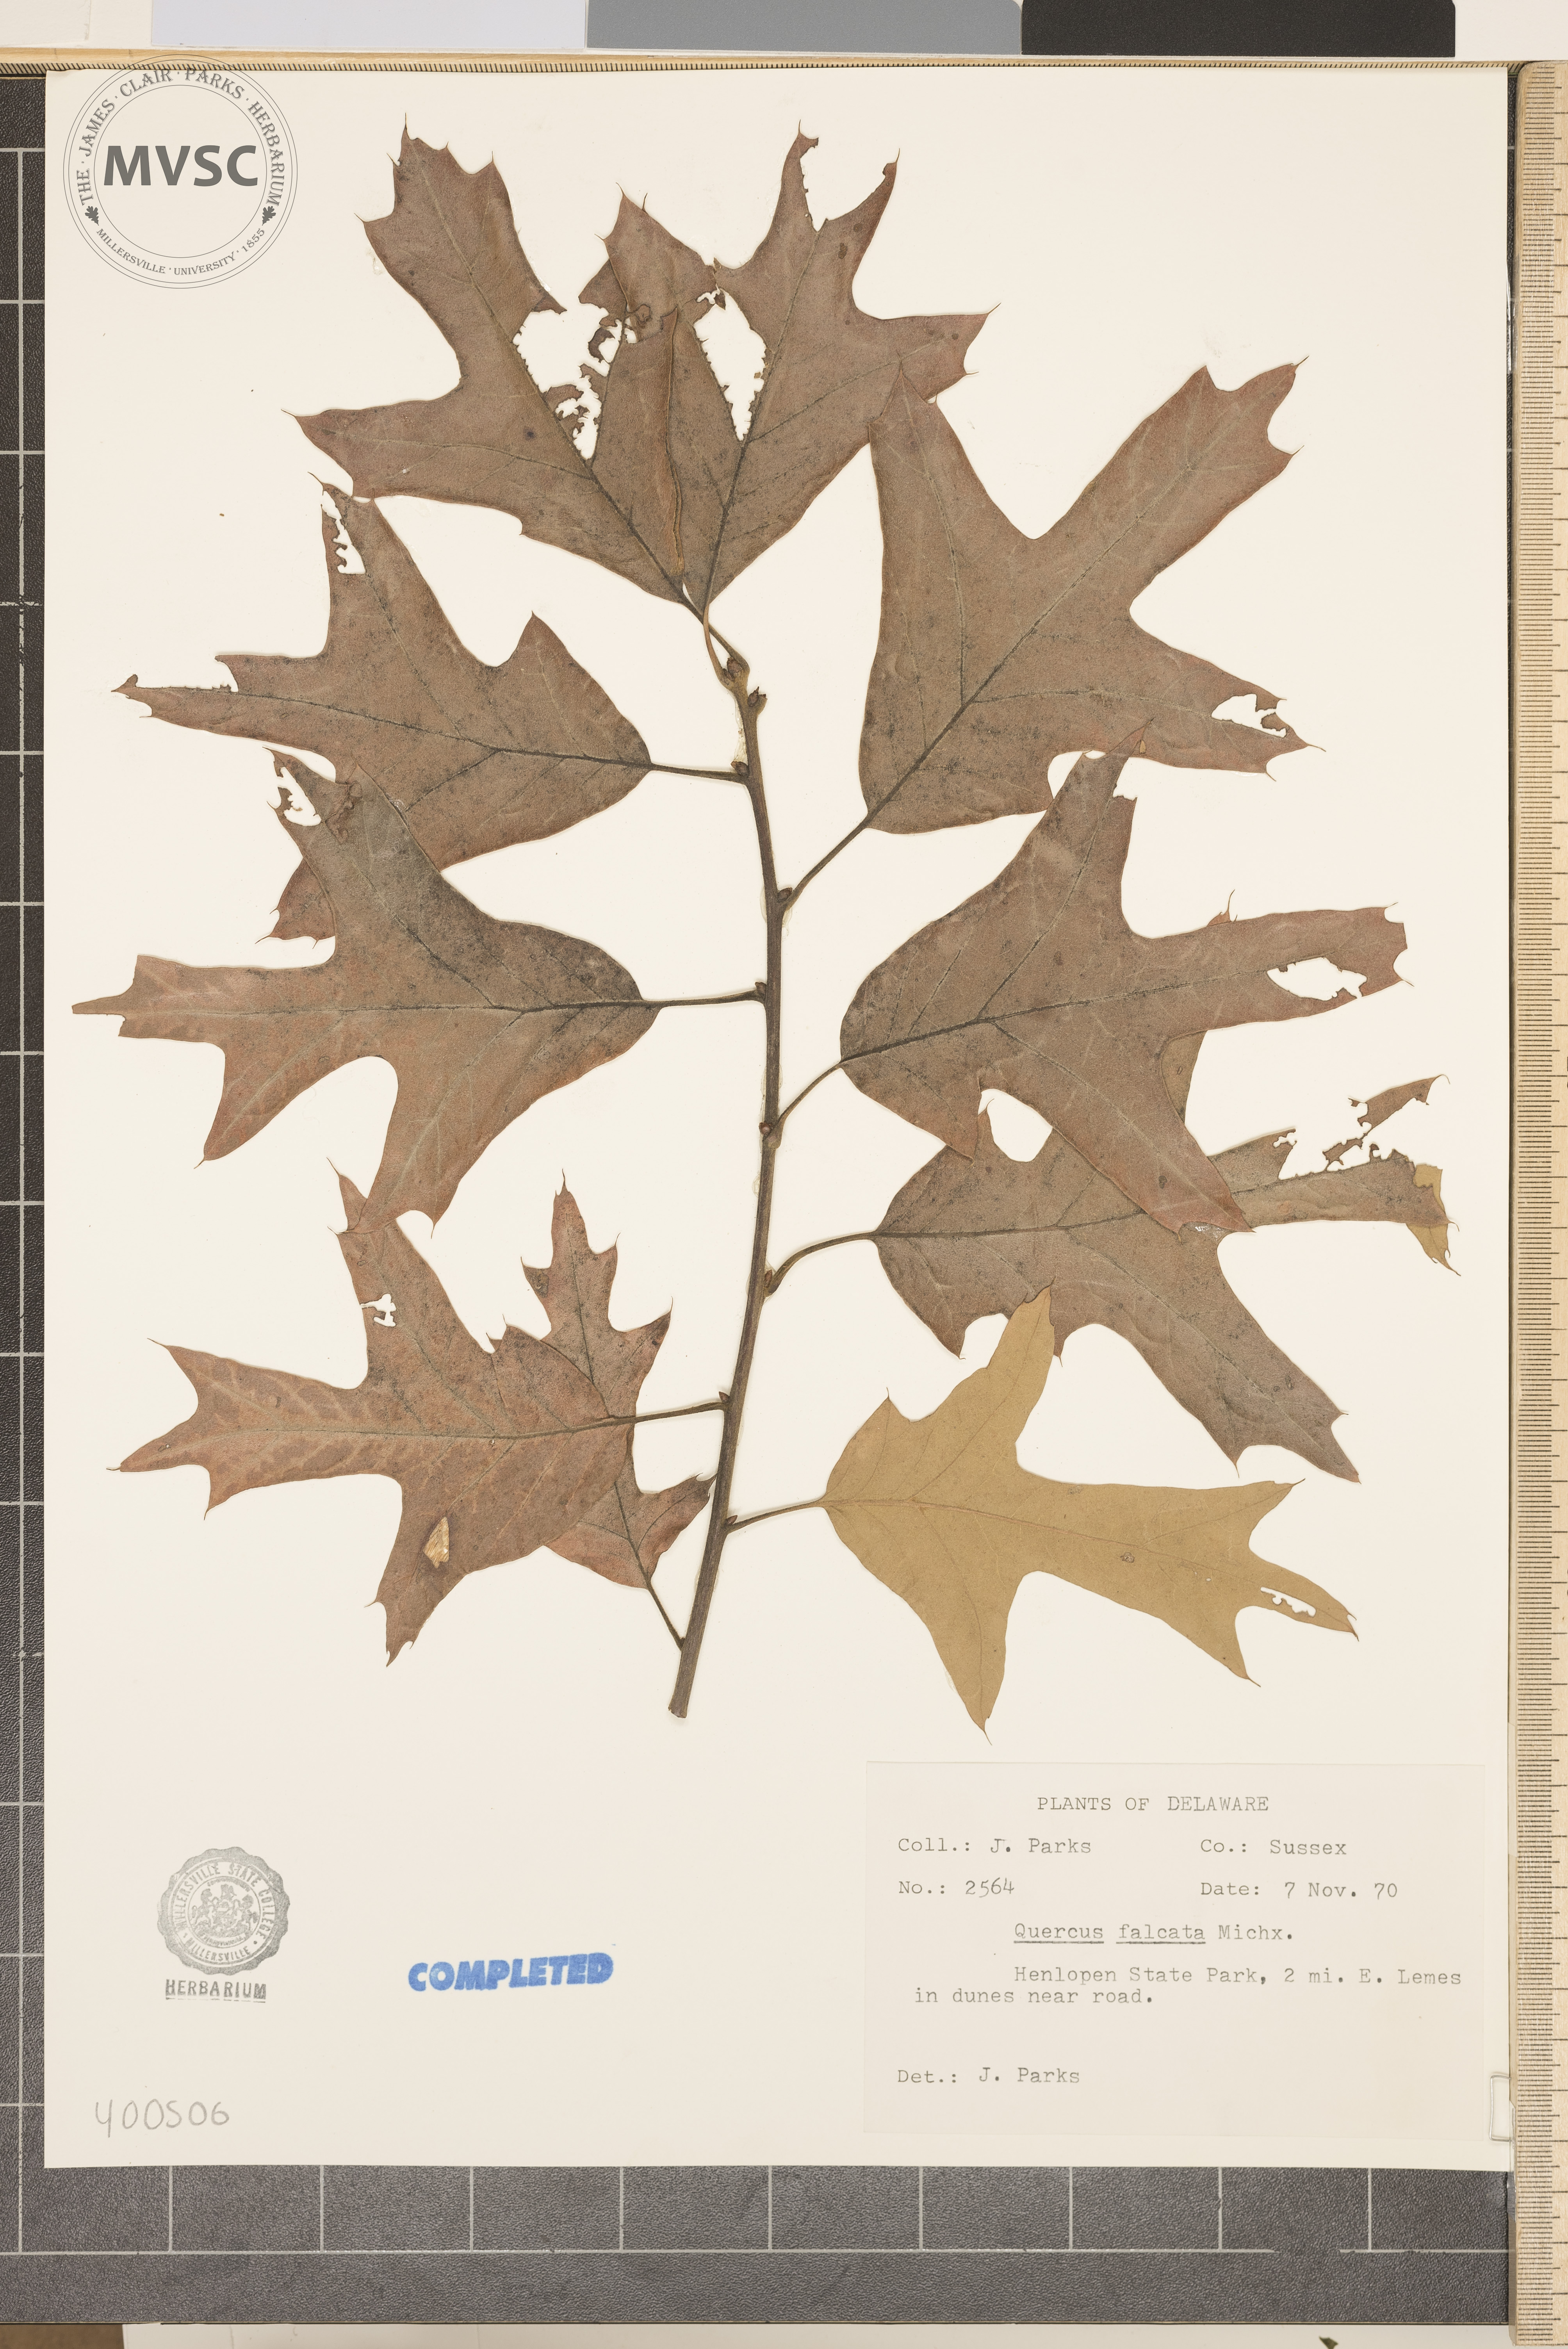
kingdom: Plantae
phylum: Tracheophyta
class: Magnoliopsida
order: Fagales
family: Fagaceae
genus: Quercus
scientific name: Quercus falcata
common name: southern red oak
